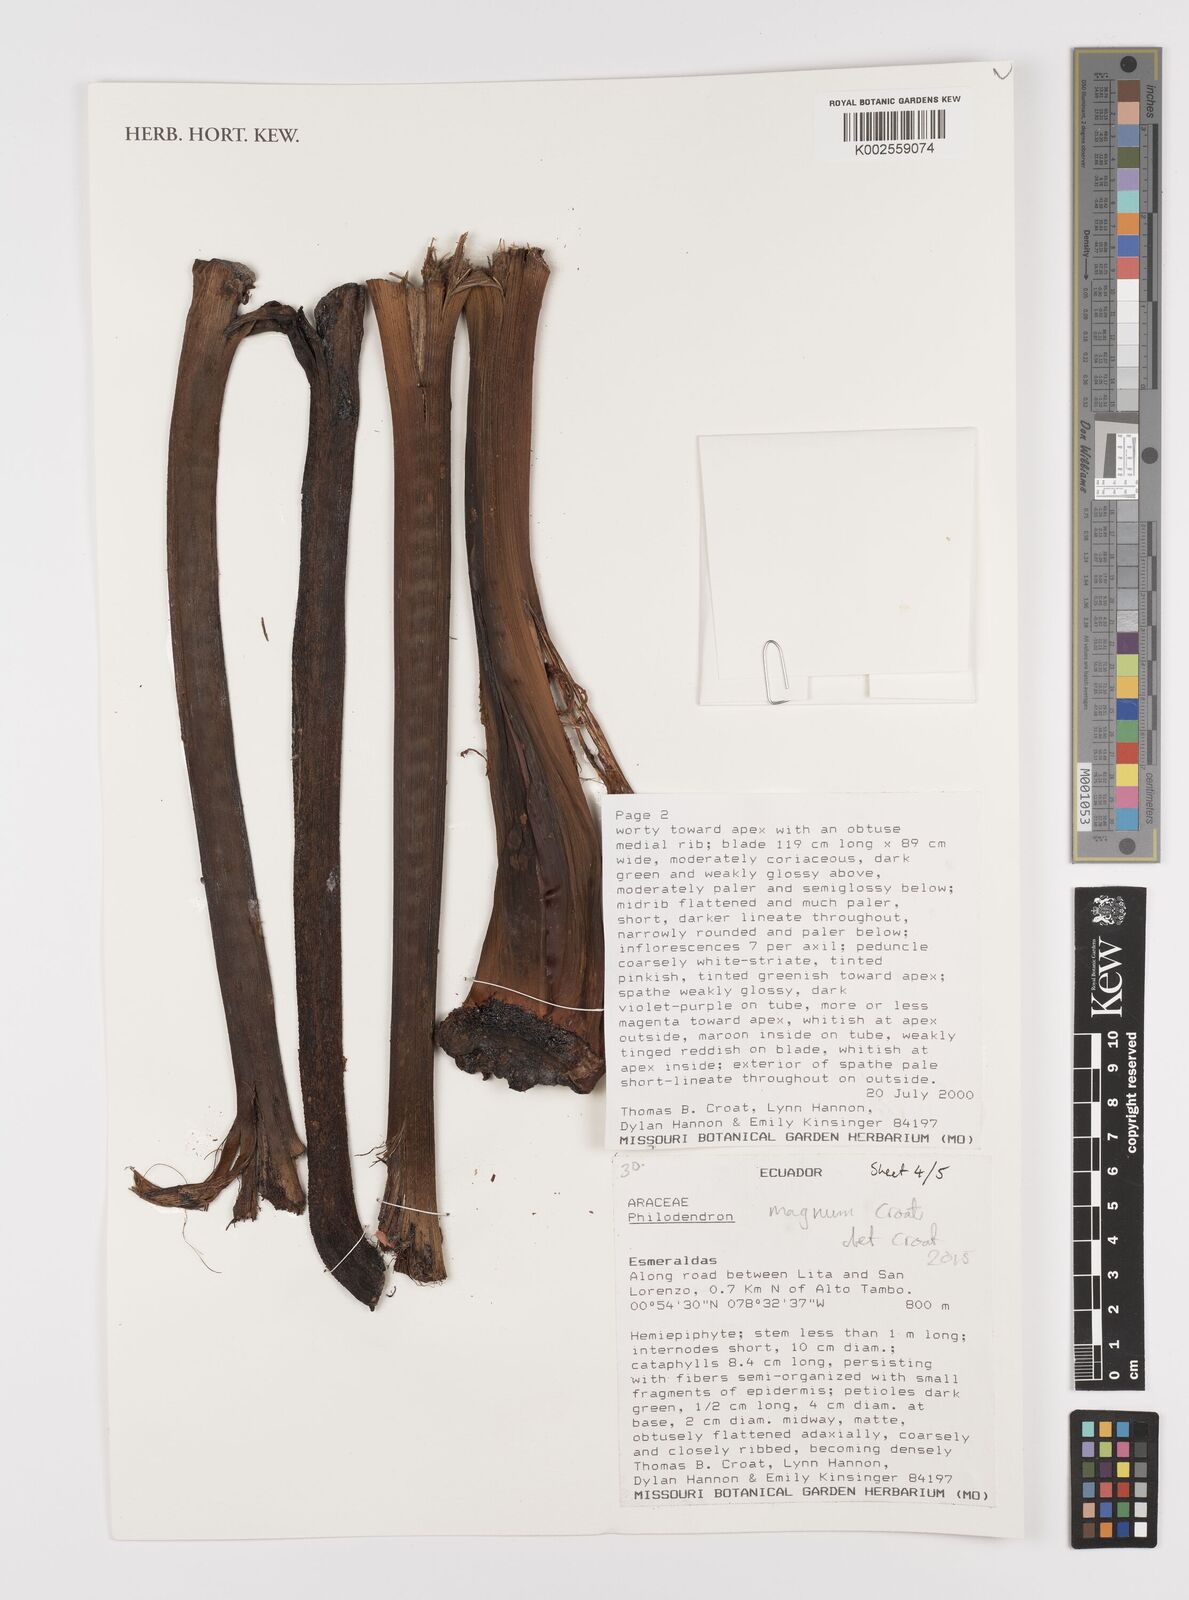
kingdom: Plantae
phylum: Tracheophyta
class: Liliopsida
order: Alismatales
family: Araceae
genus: Philodendron
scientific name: Philodendron magnum
